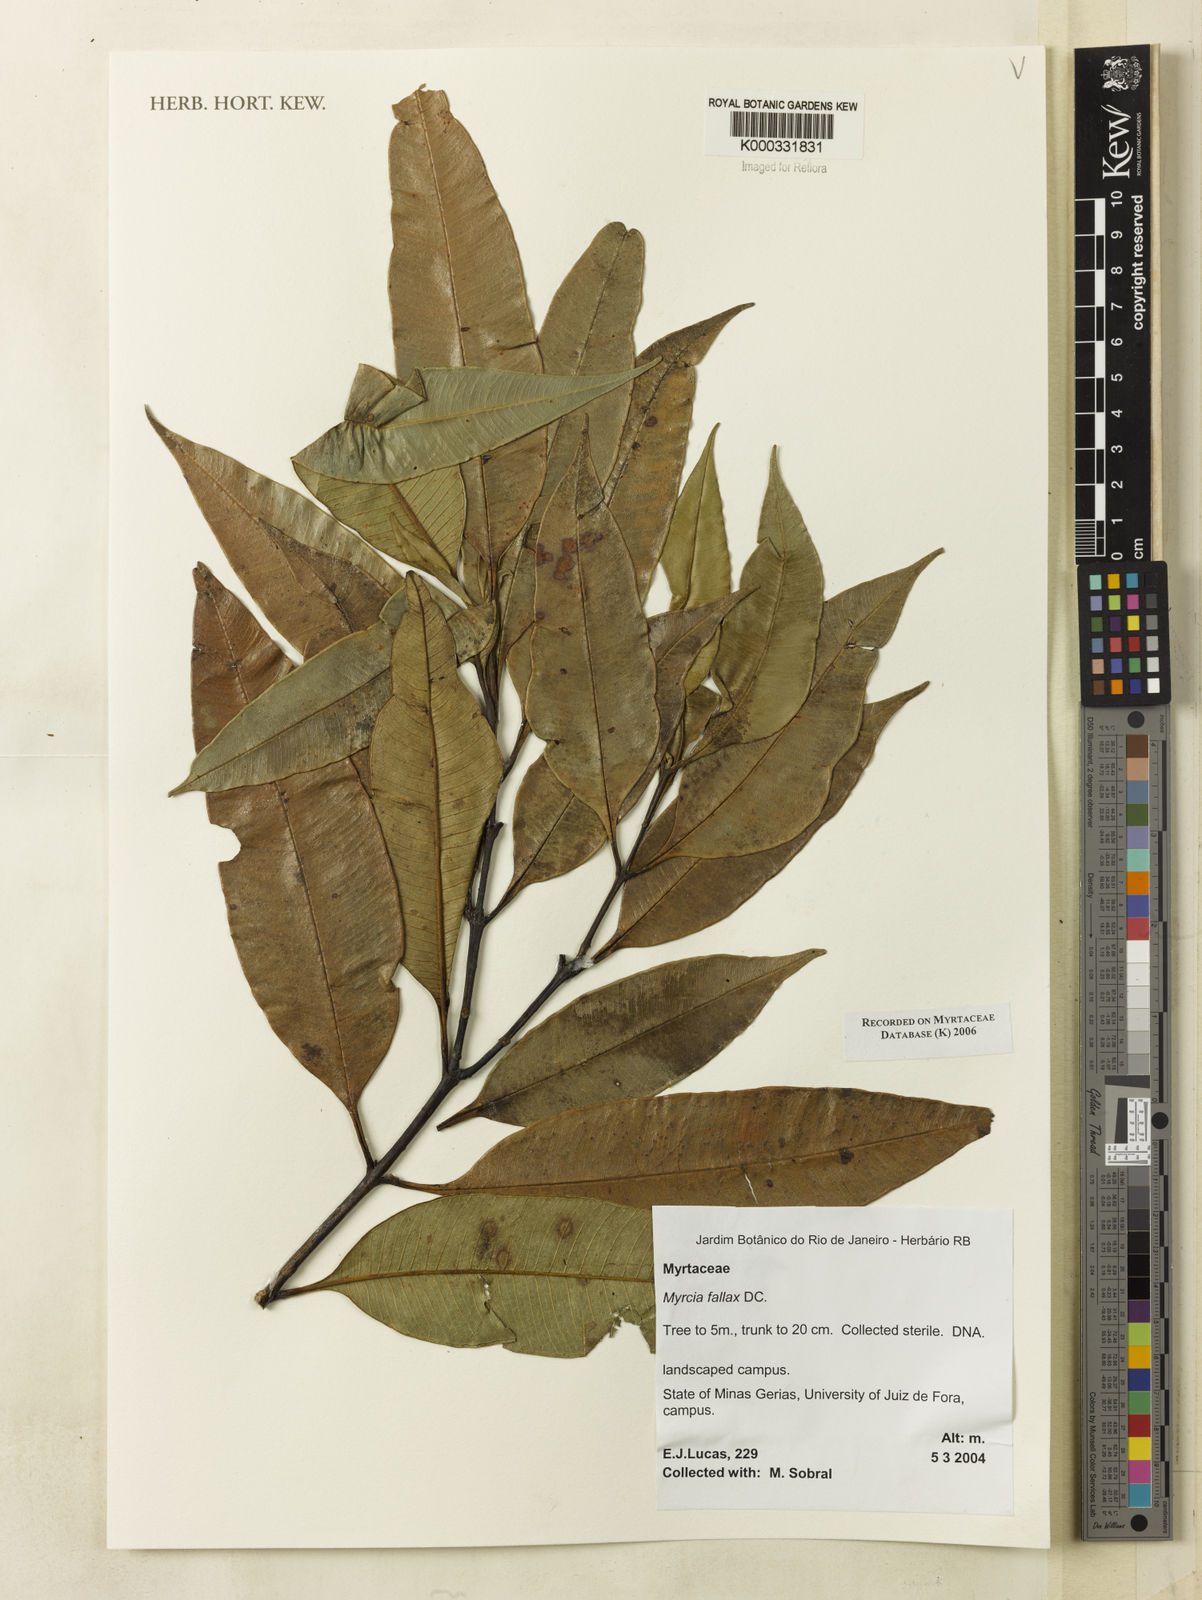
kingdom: Plantae
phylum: Tracheophyta
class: Magnoliopsida
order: Myrtales
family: Myrtaceae
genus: Myrcia
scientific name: Myrcia splendens
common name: Surinam cherry
